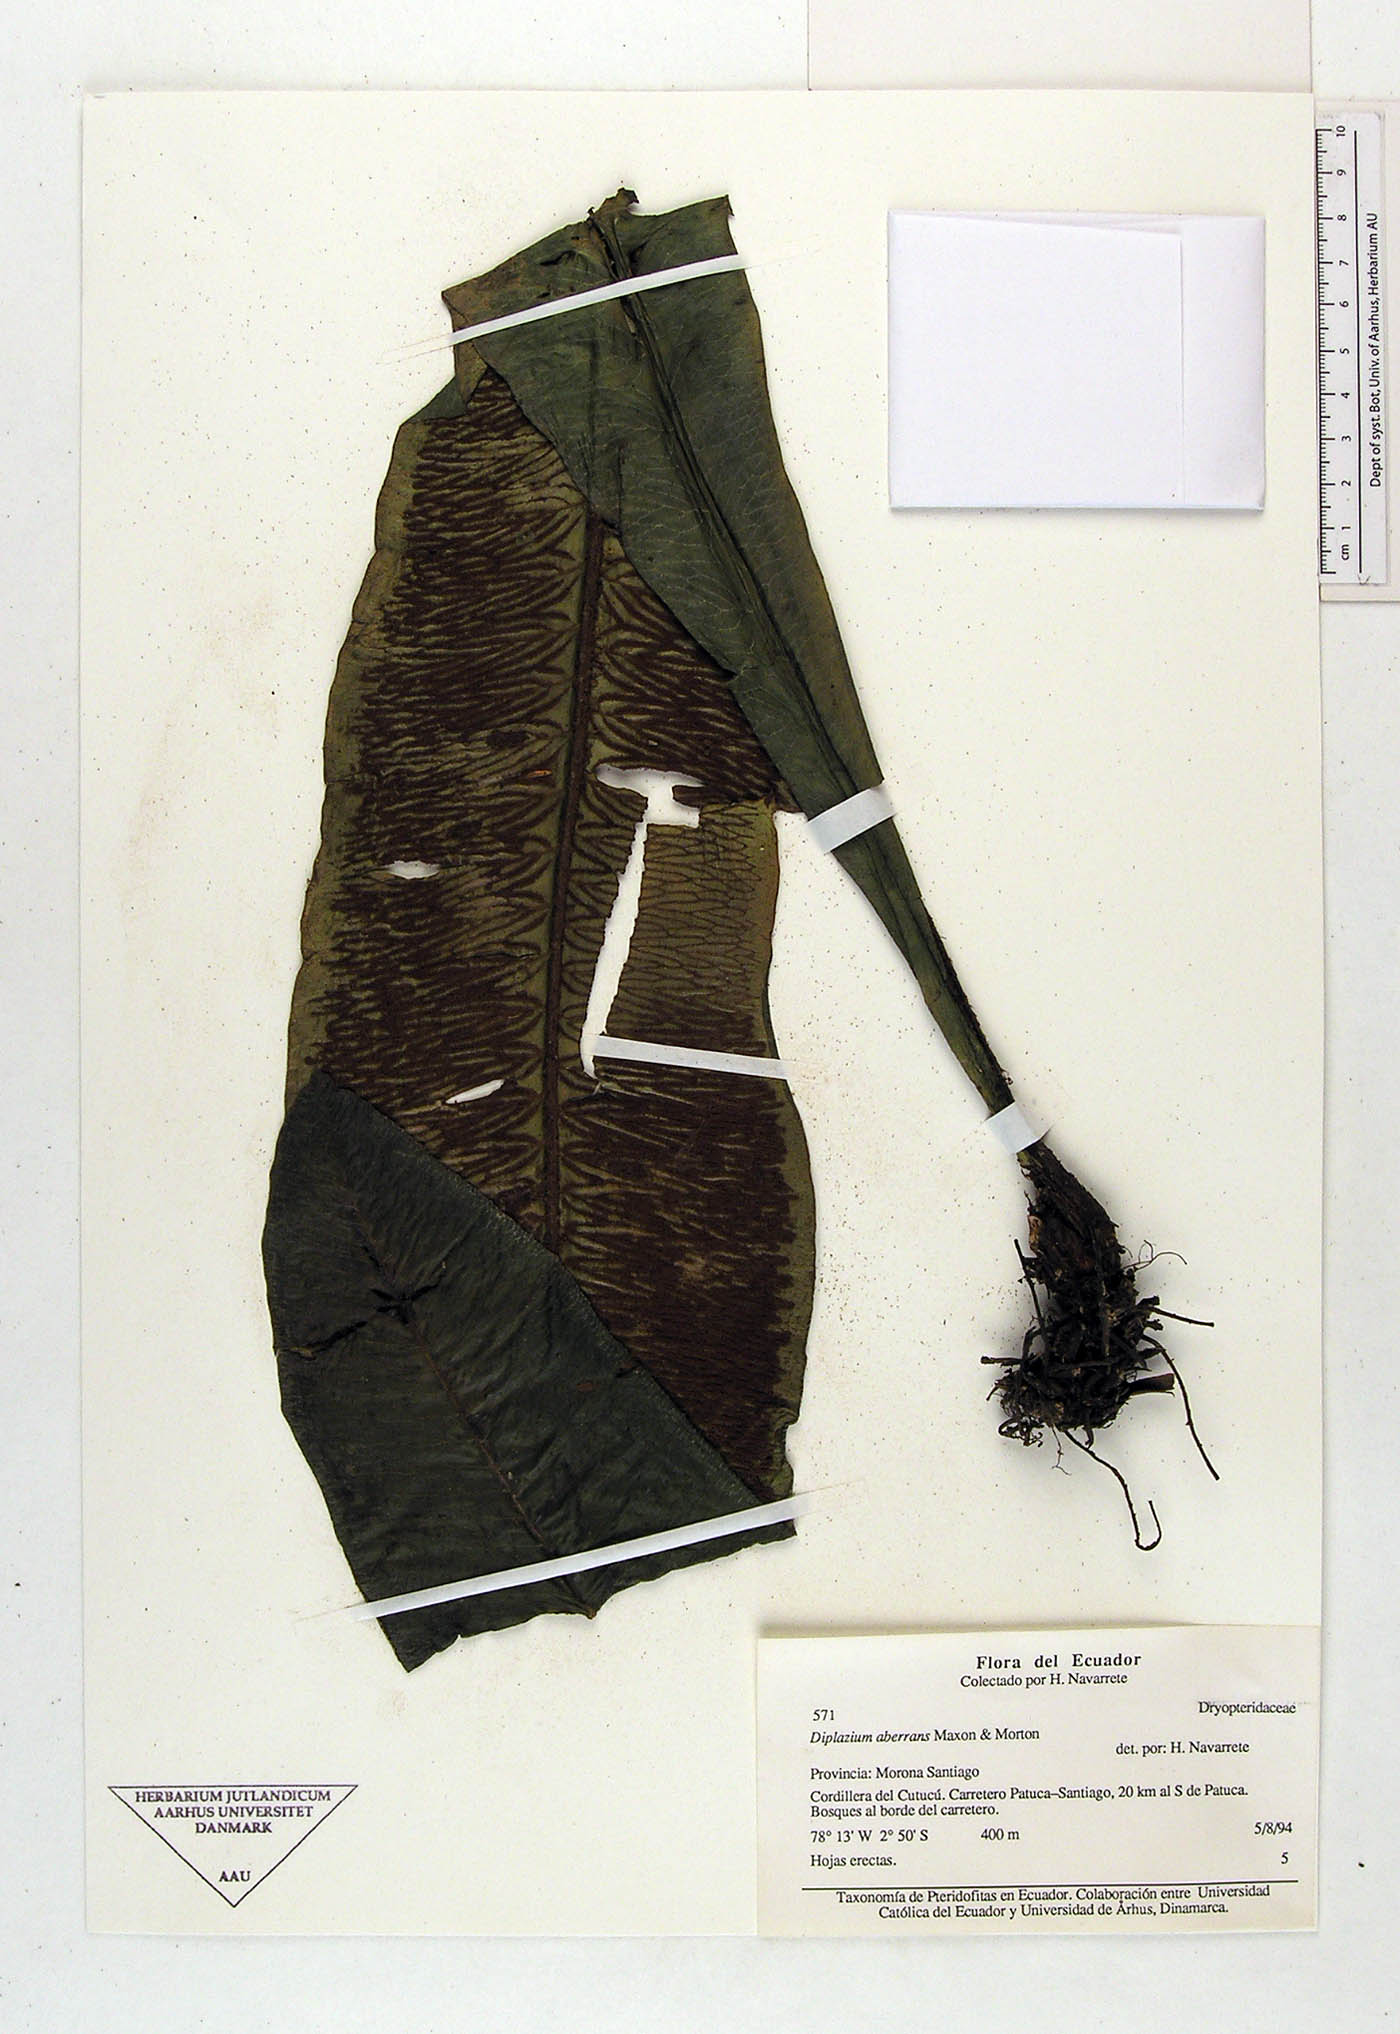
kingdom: Plantae
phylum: Tracheophyta
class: Polypodiopsida
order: Polypodiales
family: Athyriaceae
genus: Diplazium
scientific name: Diplazium aberrans
